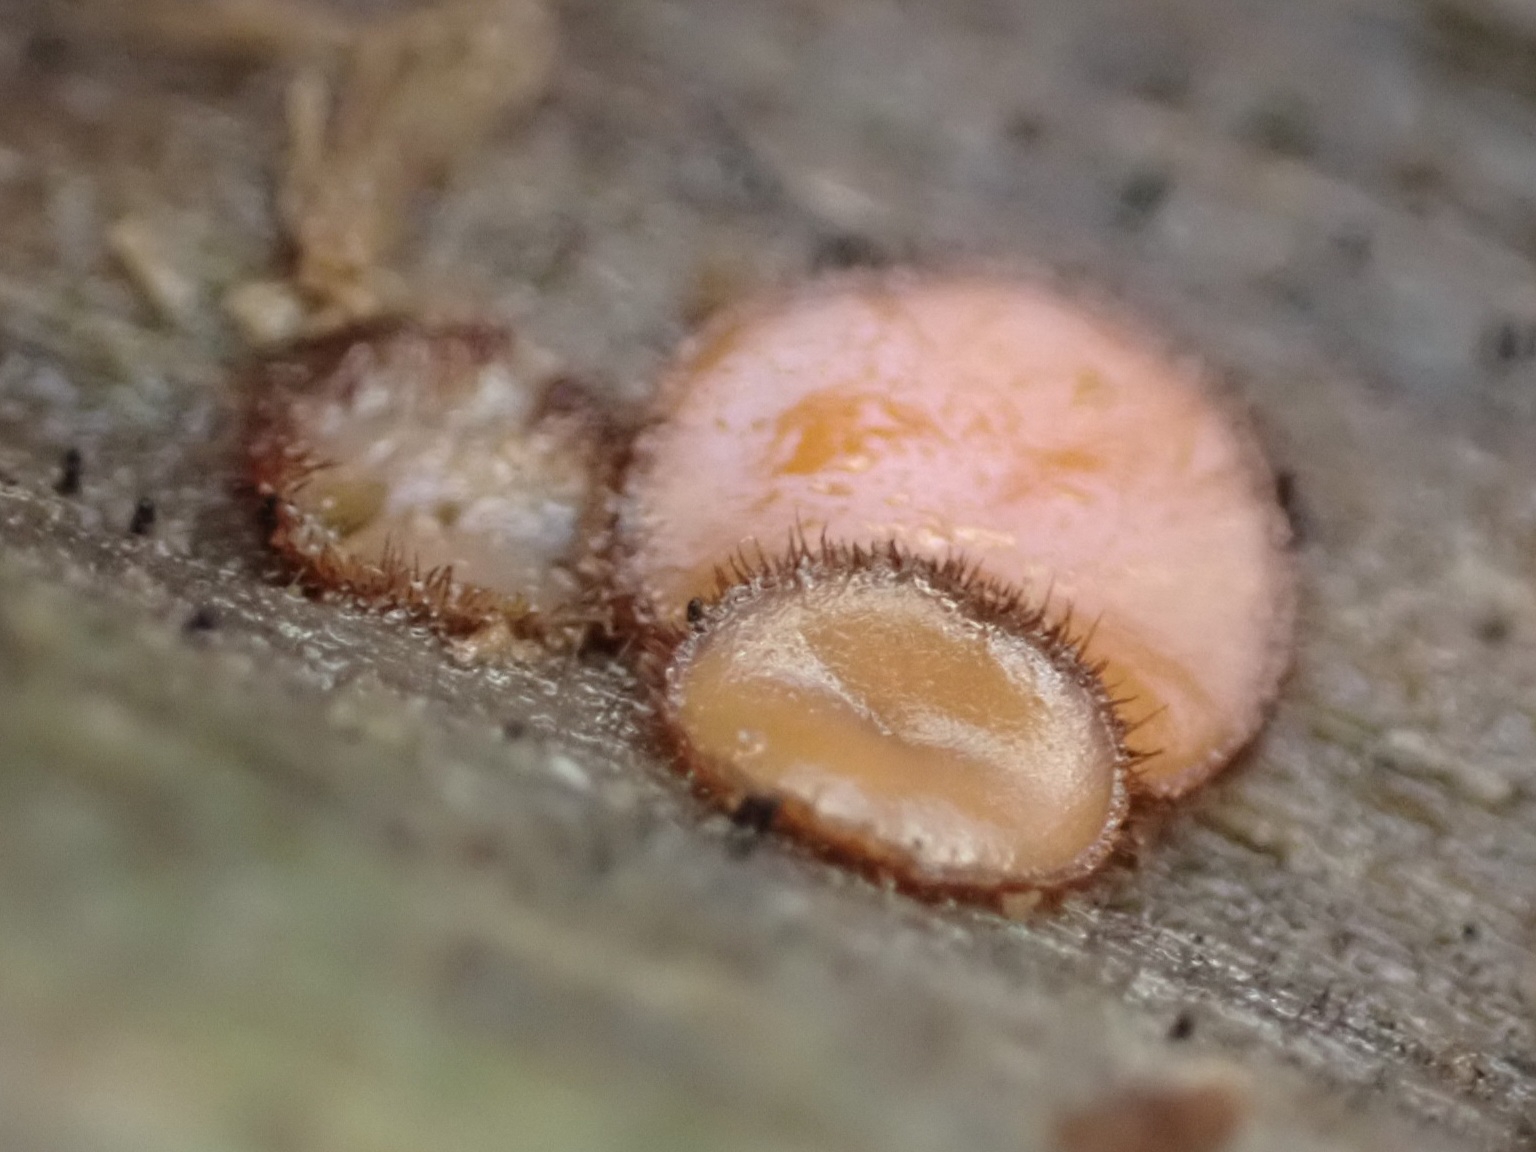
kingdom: Fungi
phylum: Ascomycota
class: Pezizomycetes
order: Pezizales
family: Pyronemataceae
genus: Scutellinia
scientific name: Scutellinia
